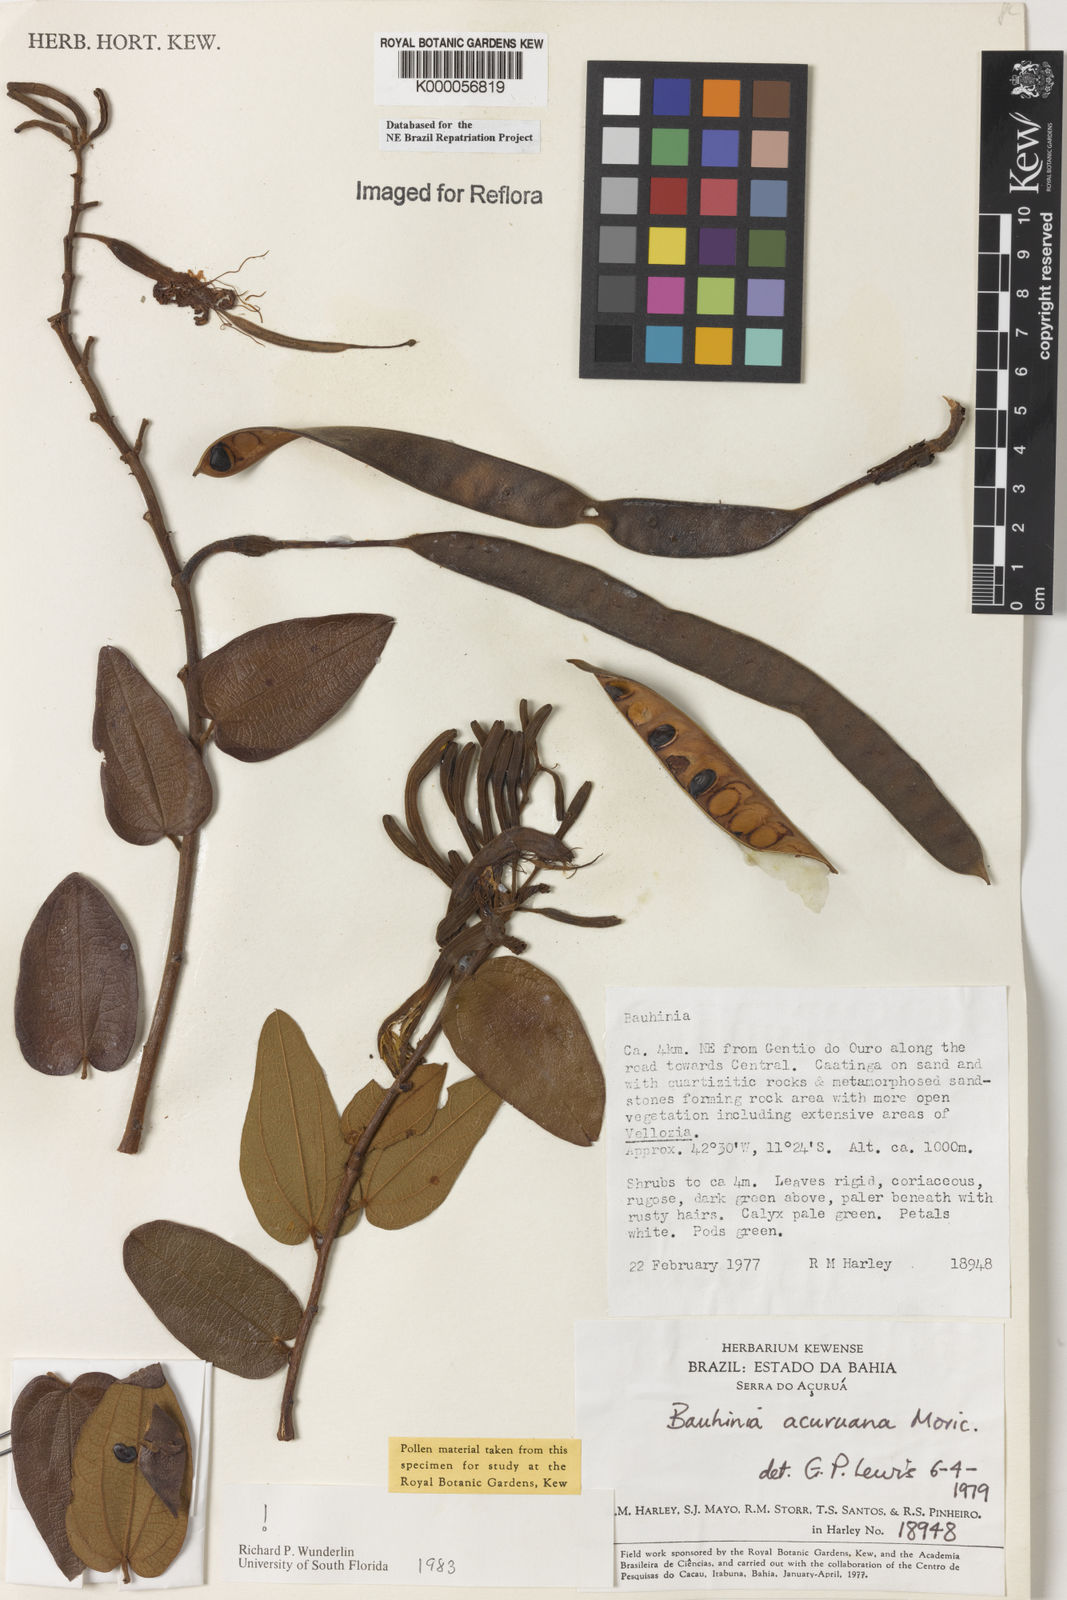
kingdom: Plantae
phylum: Tracheophyta
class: Magnoliopsida
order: Fabales
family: Fabaceae
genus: Bauhinia
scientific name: Bauhinia acuruana
